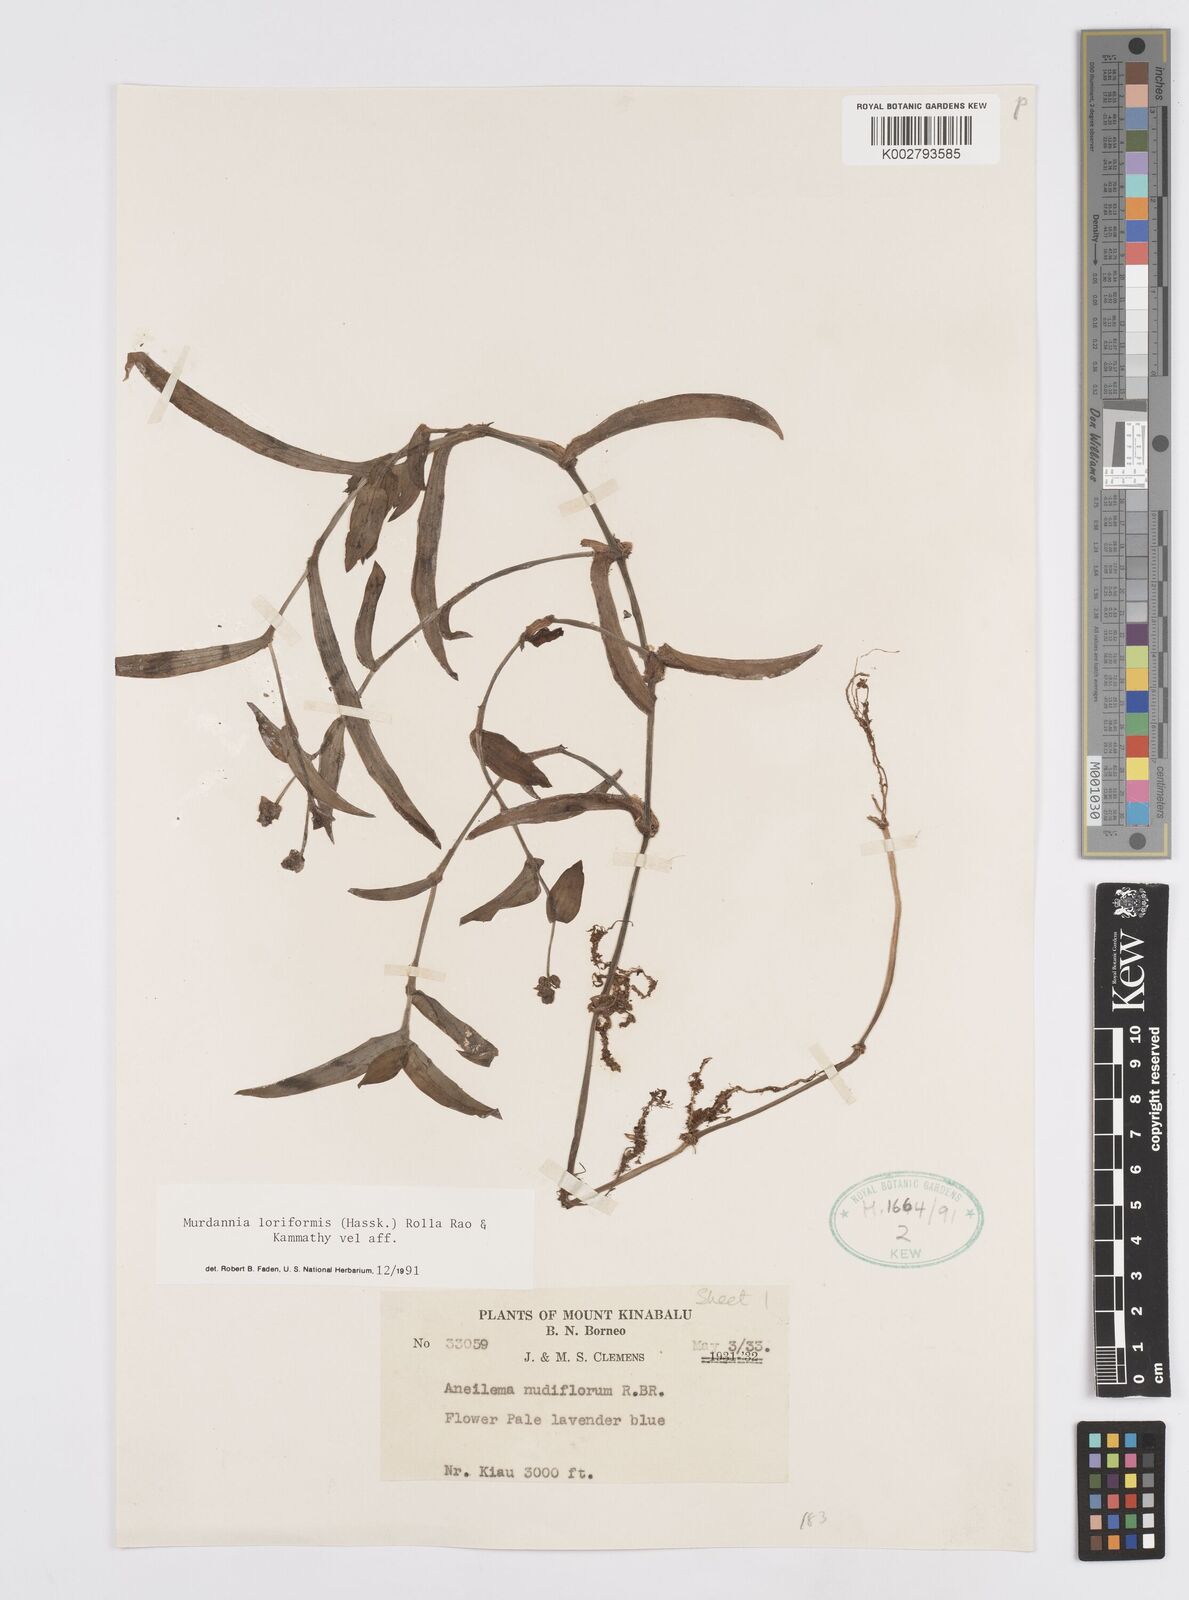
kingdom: Plantae
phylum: Tracheophyta
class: Liliopsida
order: Commelinales
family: Commelinaceae
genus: Murdannia
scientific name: Murdannia loriformis
